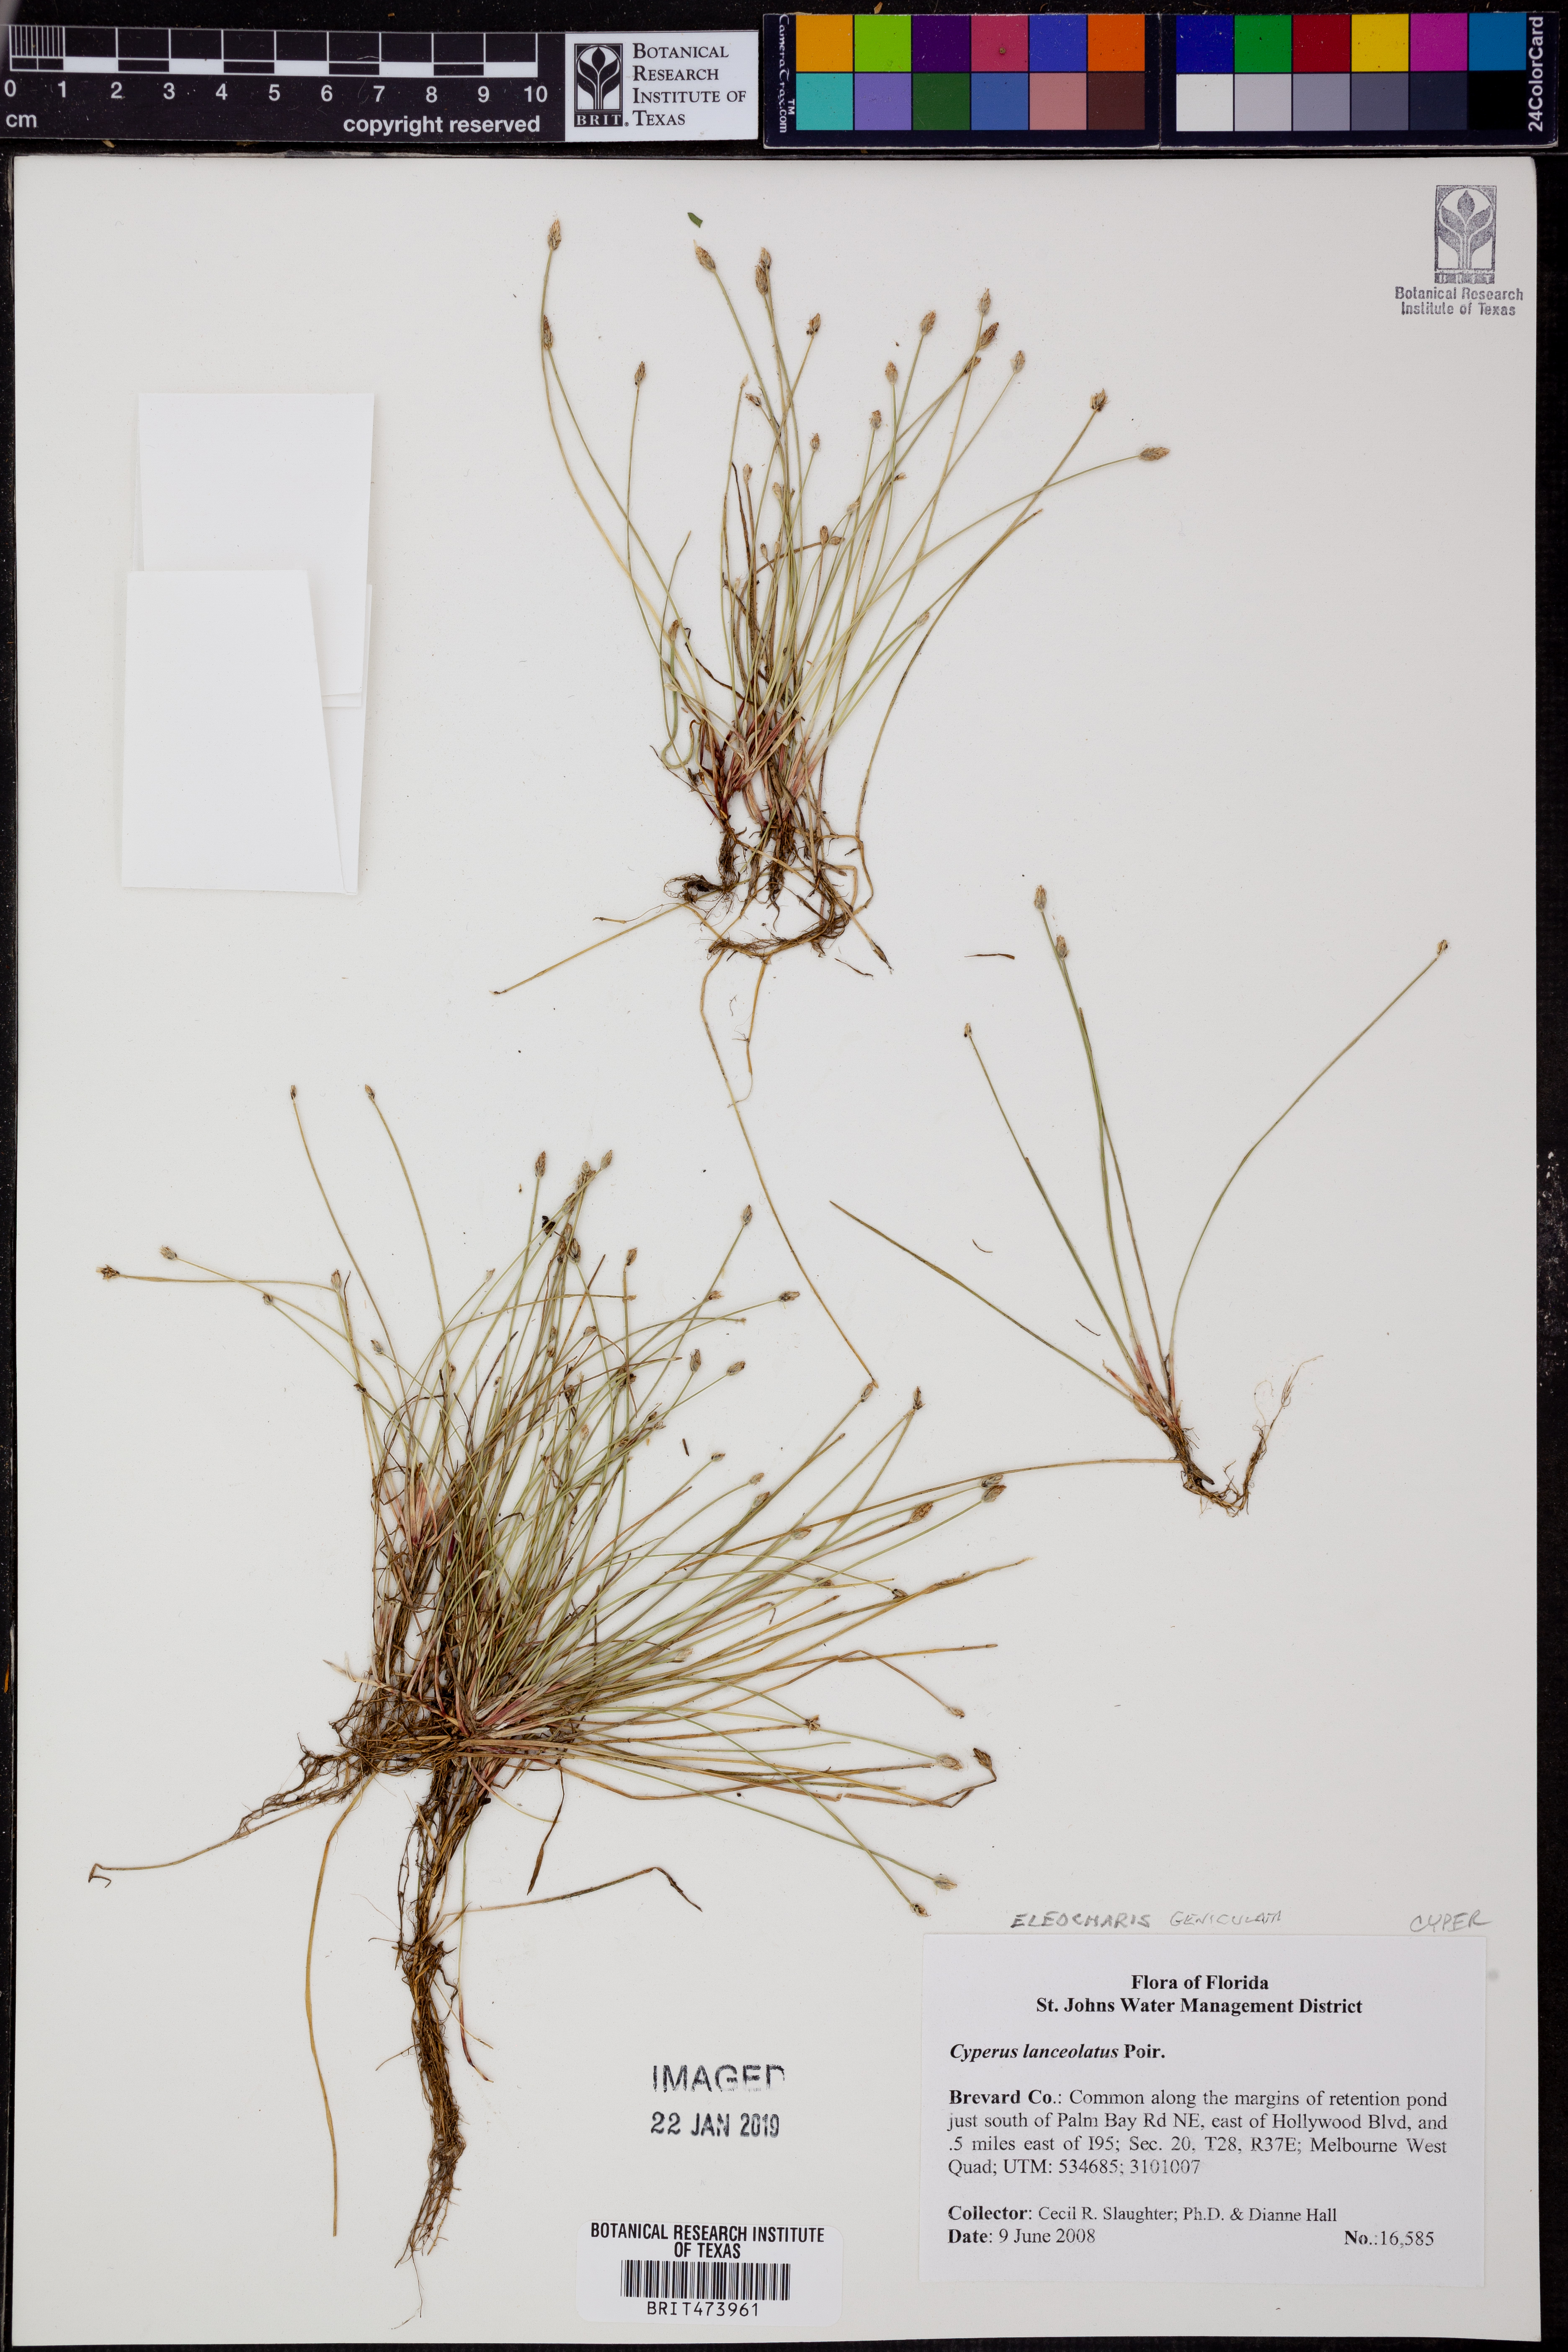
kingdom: Plantae
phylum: Tracheophyta
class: Liliopsida
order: Poales
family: Cyperaceae
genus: Cyperus
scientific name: Cyperus lanceolatus
